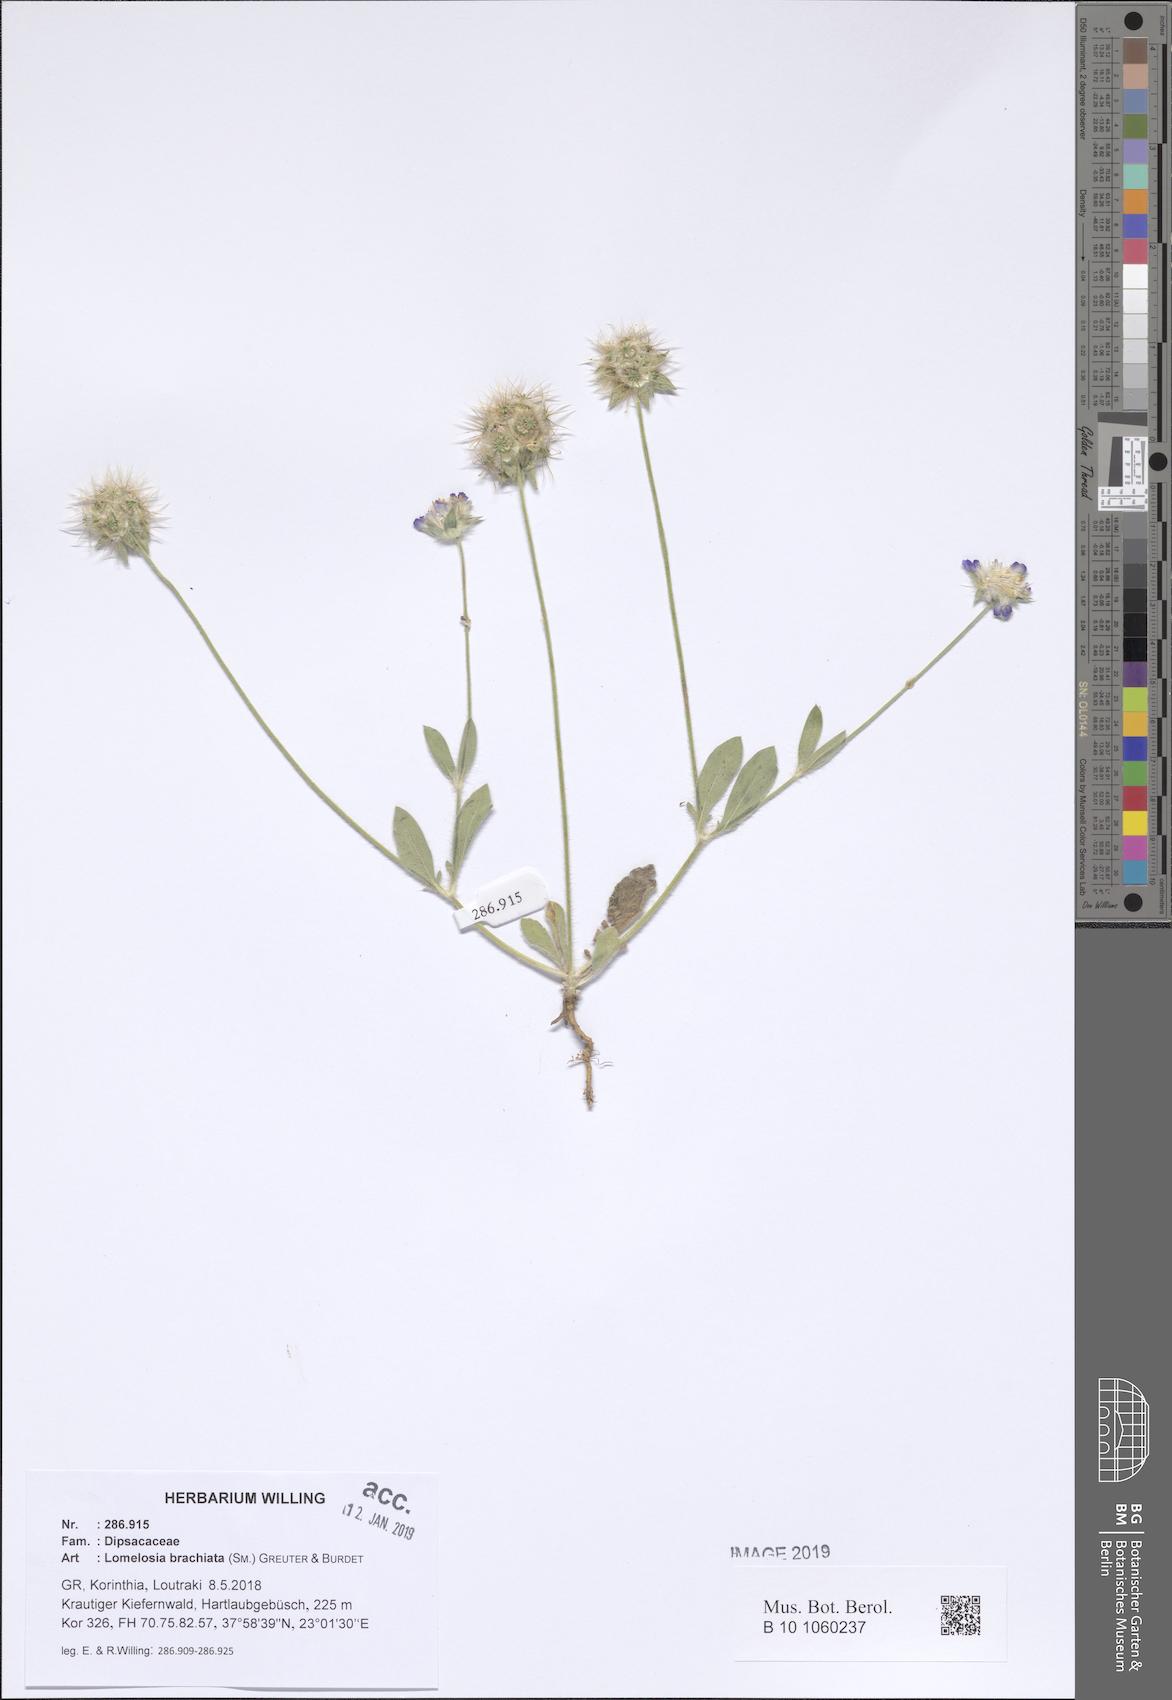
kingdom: Plantae
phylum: Tracheophyta
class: Magnoliopsida
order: Dipsacales
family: Caprifoliaceae
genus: Lomelosia
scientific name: Lomelosia brachiata
